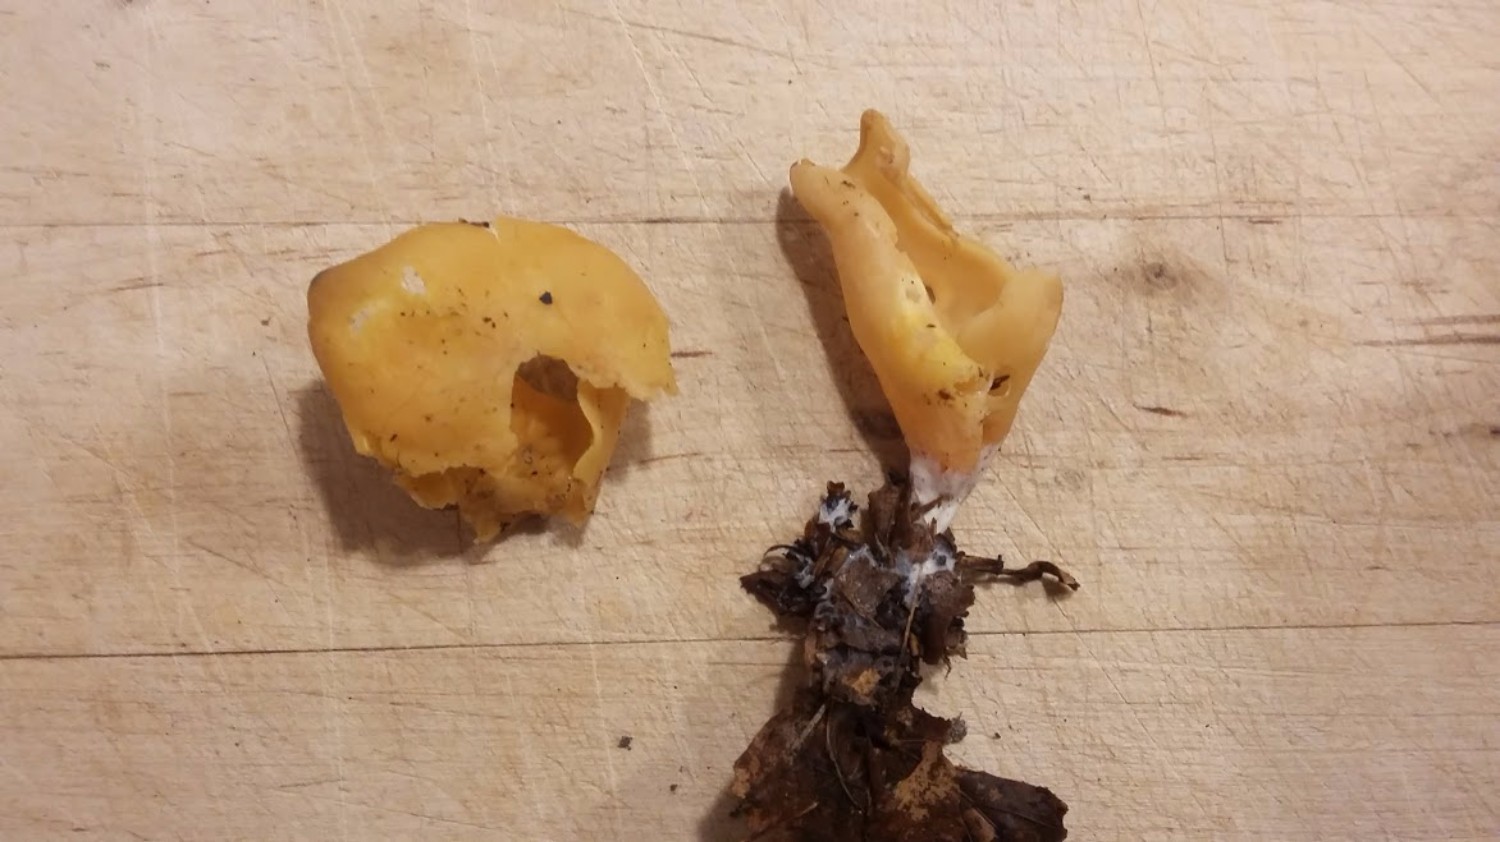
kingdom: Fungi
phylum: Ascomycota
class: Pezizomycetes
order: Pezizales
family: Otideaceae
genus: Otidea
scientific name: Otidea onotica
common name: æsel-ørebæger
